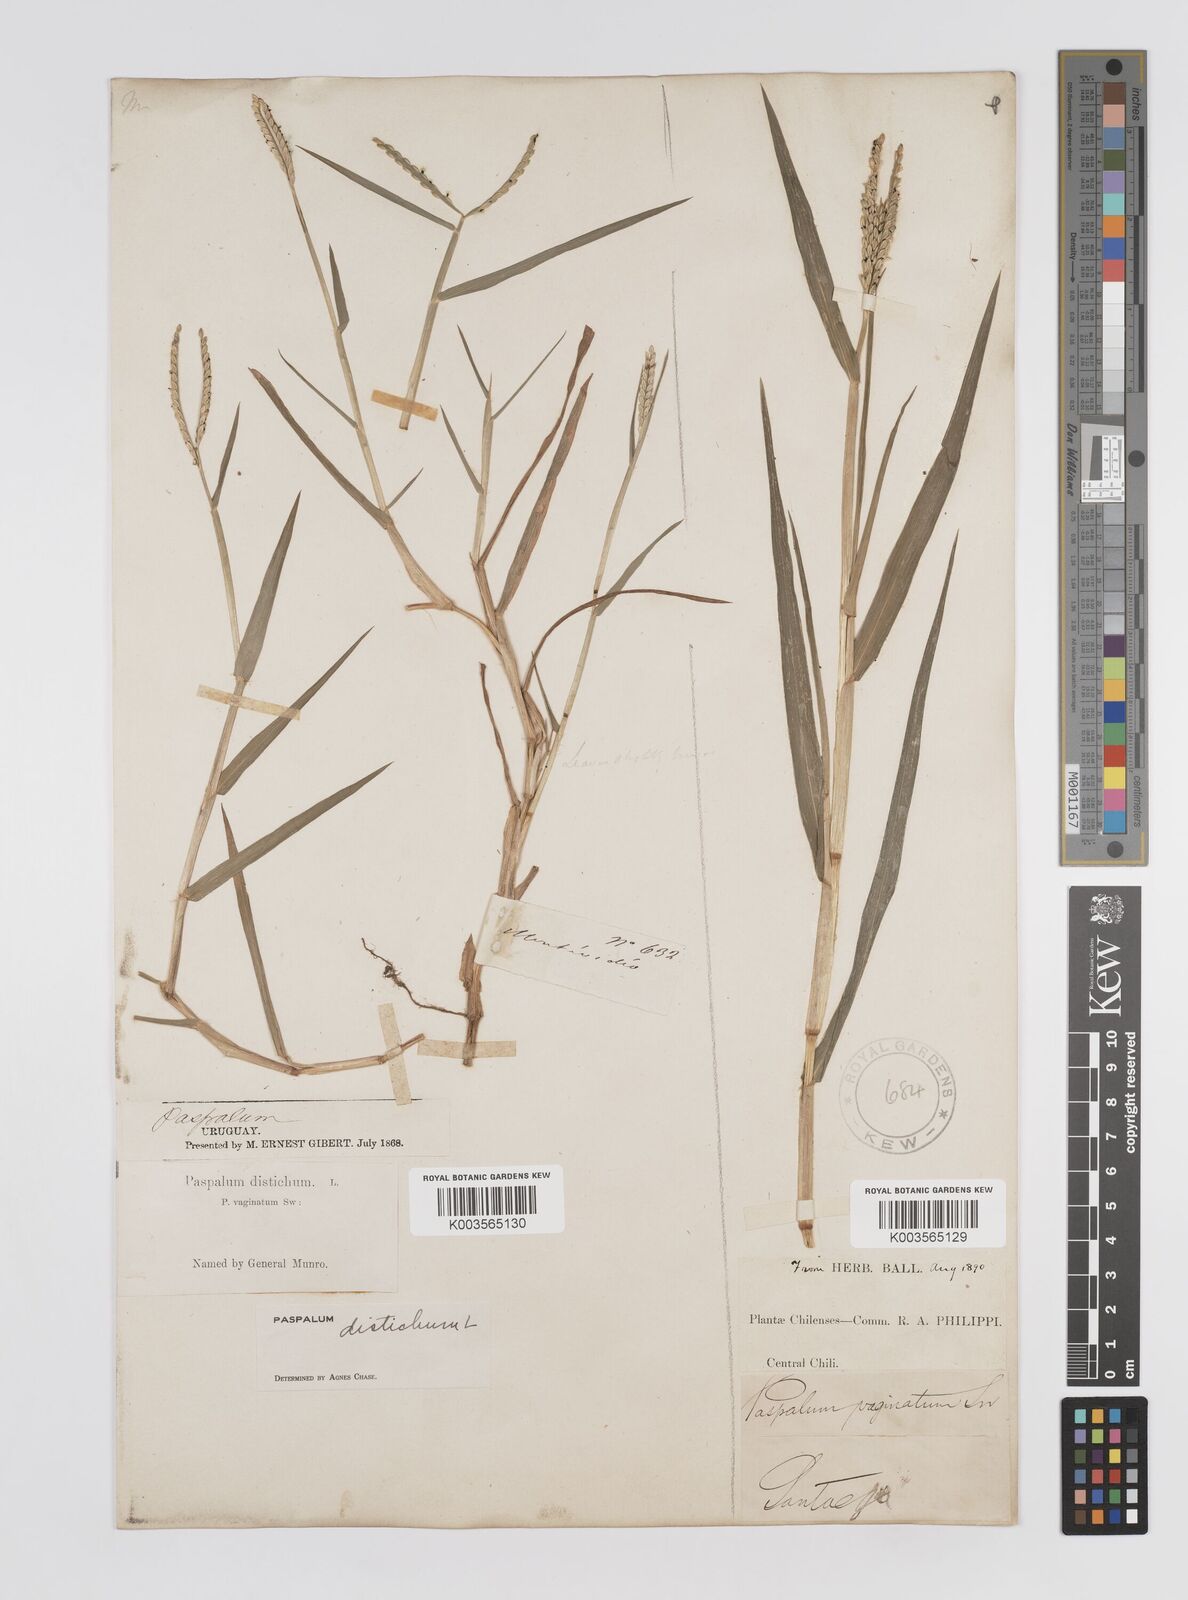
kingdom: Plantae
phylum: Tracheophyta
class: Liliopsida
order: Poales
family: Poaceae
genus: Paspalum
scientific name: Paspalum distichum
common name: Knotgrass
